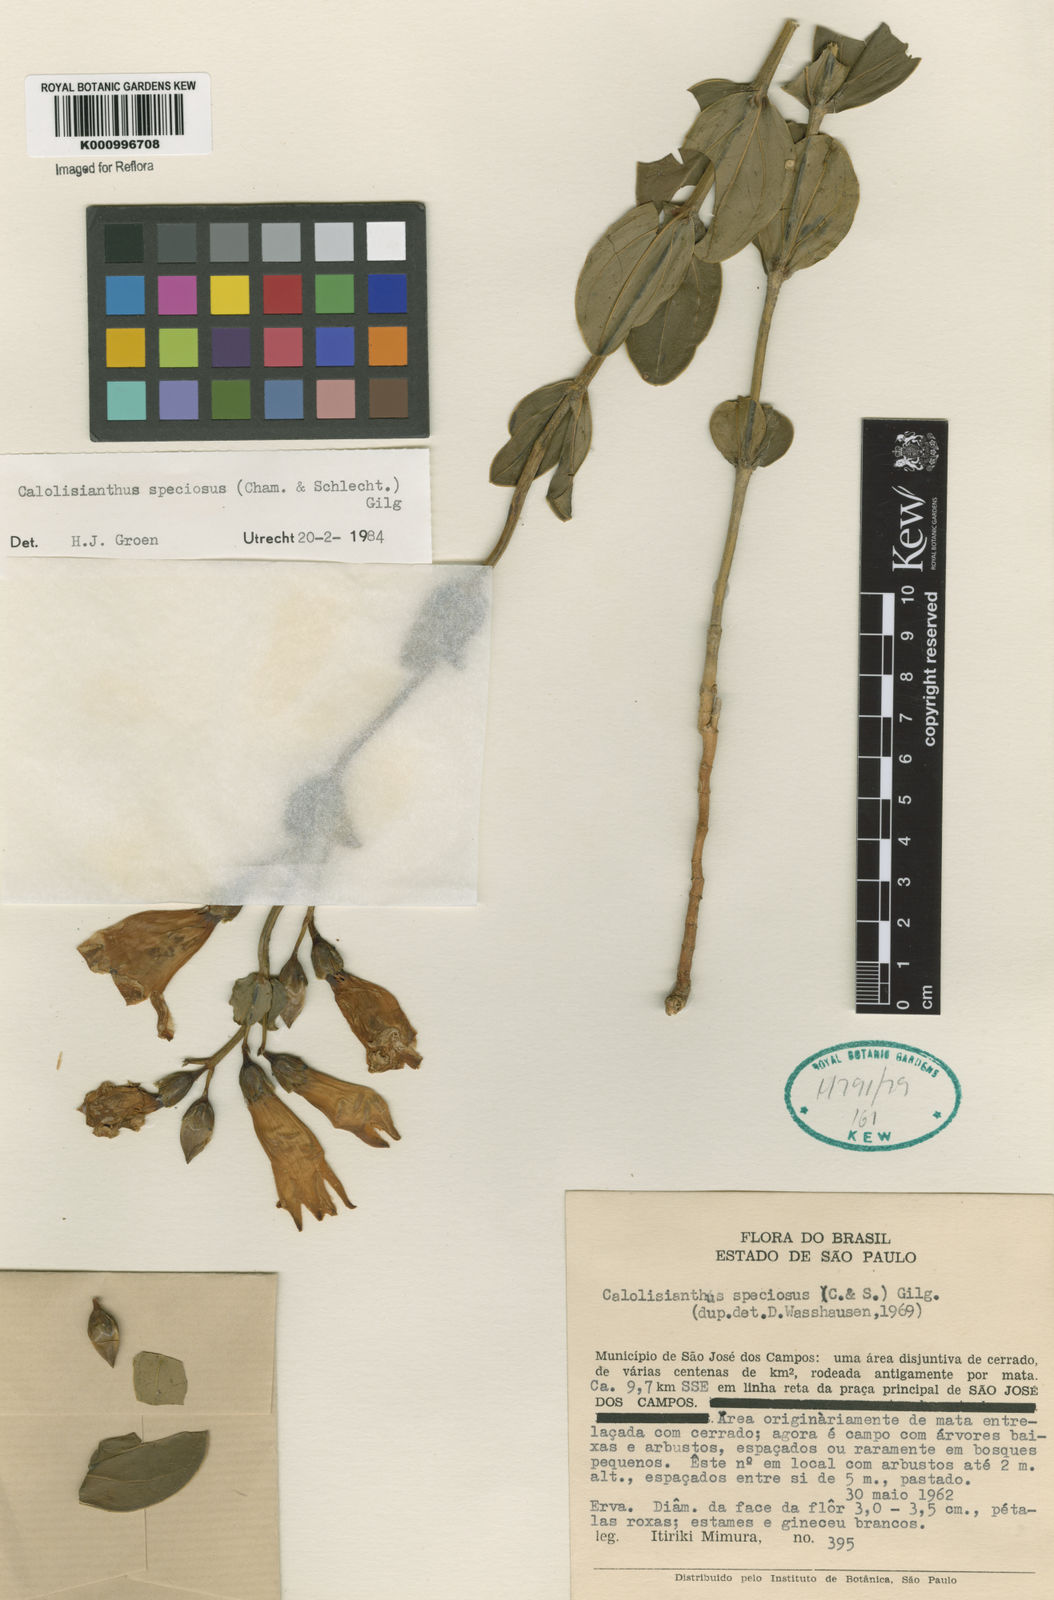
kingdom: Plantae
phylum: Tracheophyta
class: Magnoliopsida
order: Gentianales
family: Gentianaceae
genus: Calolisianthus
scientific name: Calolisianthus speciosus
